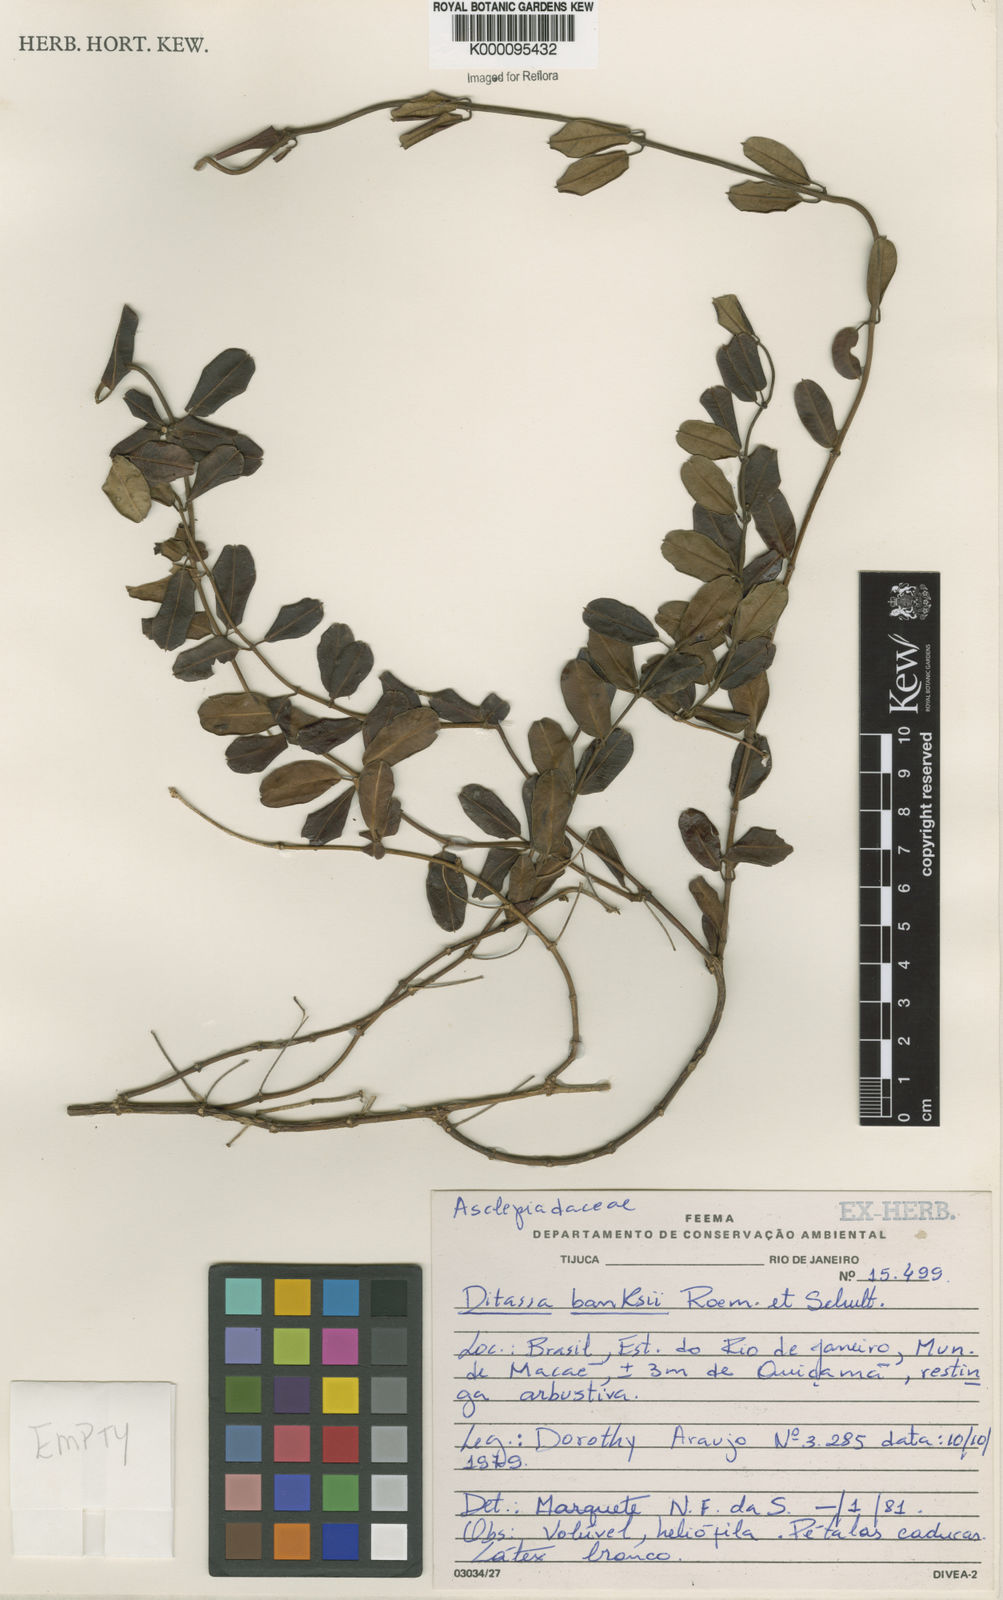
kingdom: Plantae
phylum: Tracheophyta
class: Magnoliopsida
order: Gentianales
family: Apocynaceae
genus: Ditassa
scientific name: Ditassa banksii
